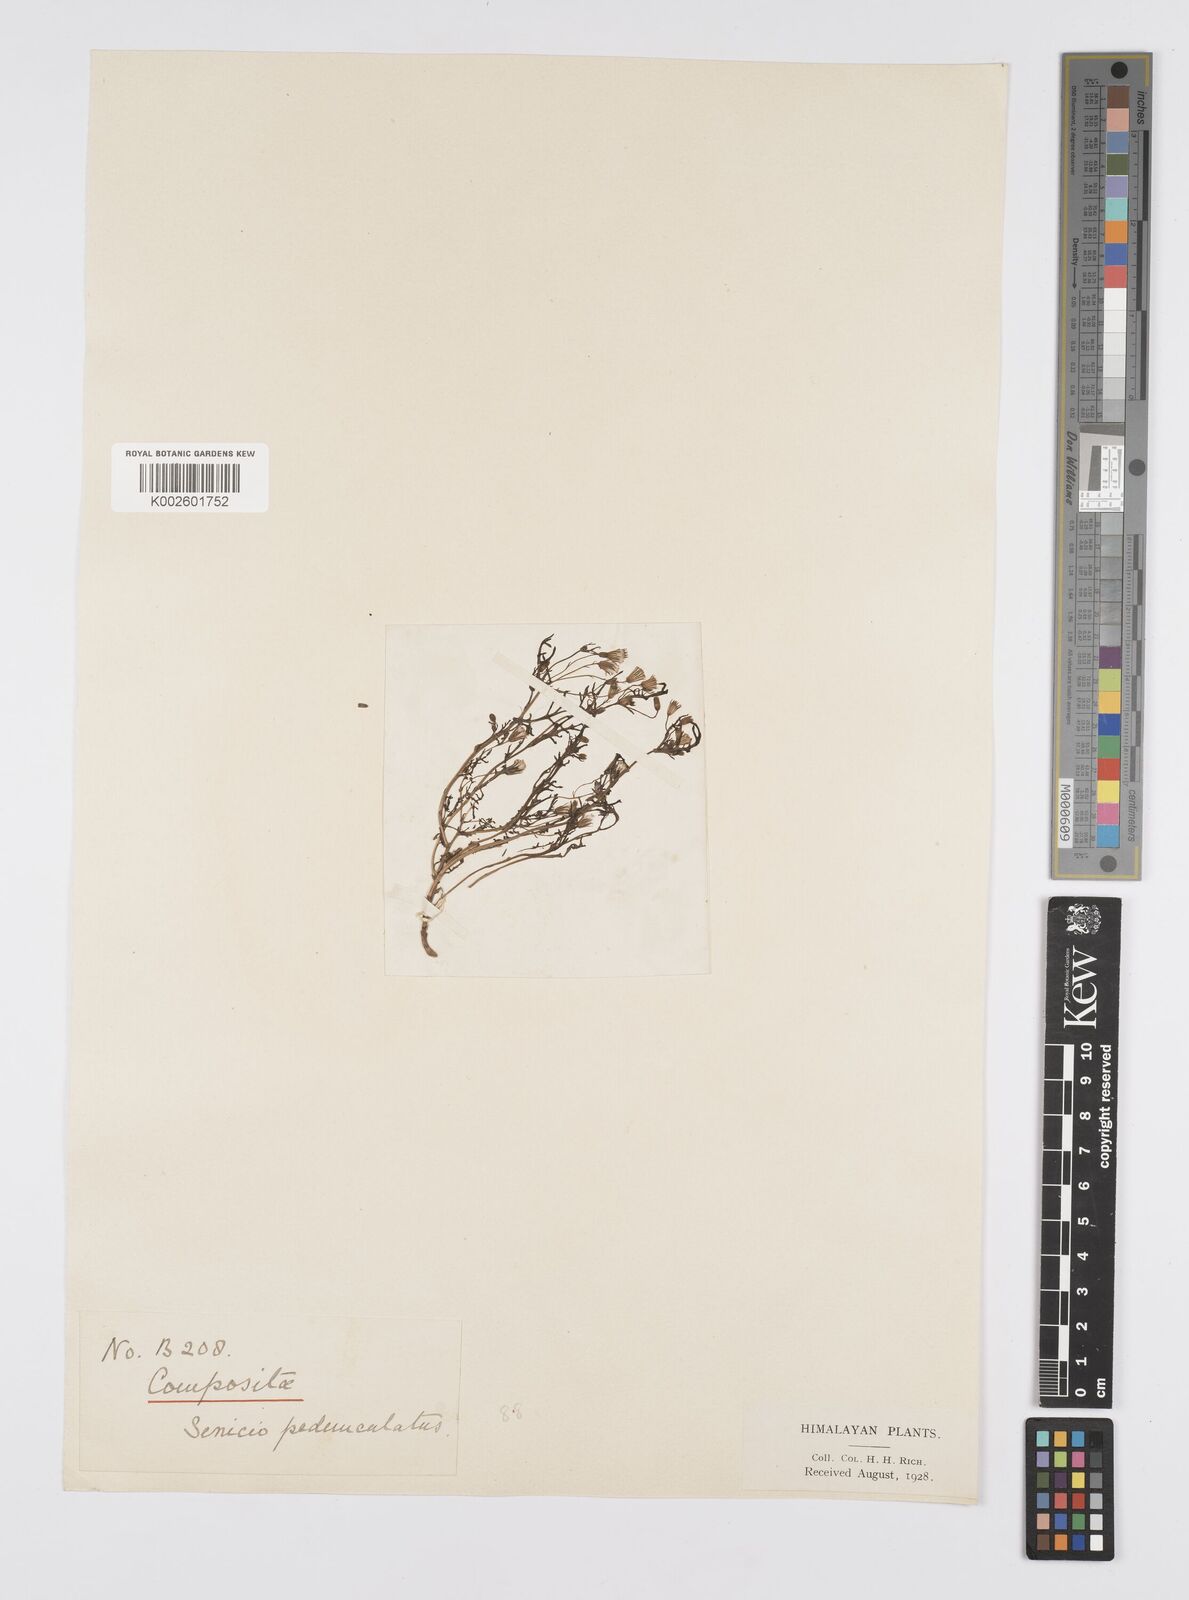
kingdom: Plantae
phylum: Tracheophyta
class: Magnoliopsida
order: Asterales
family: Asteraceae
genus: Senecio
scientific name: Senecio krascheninnikovii
